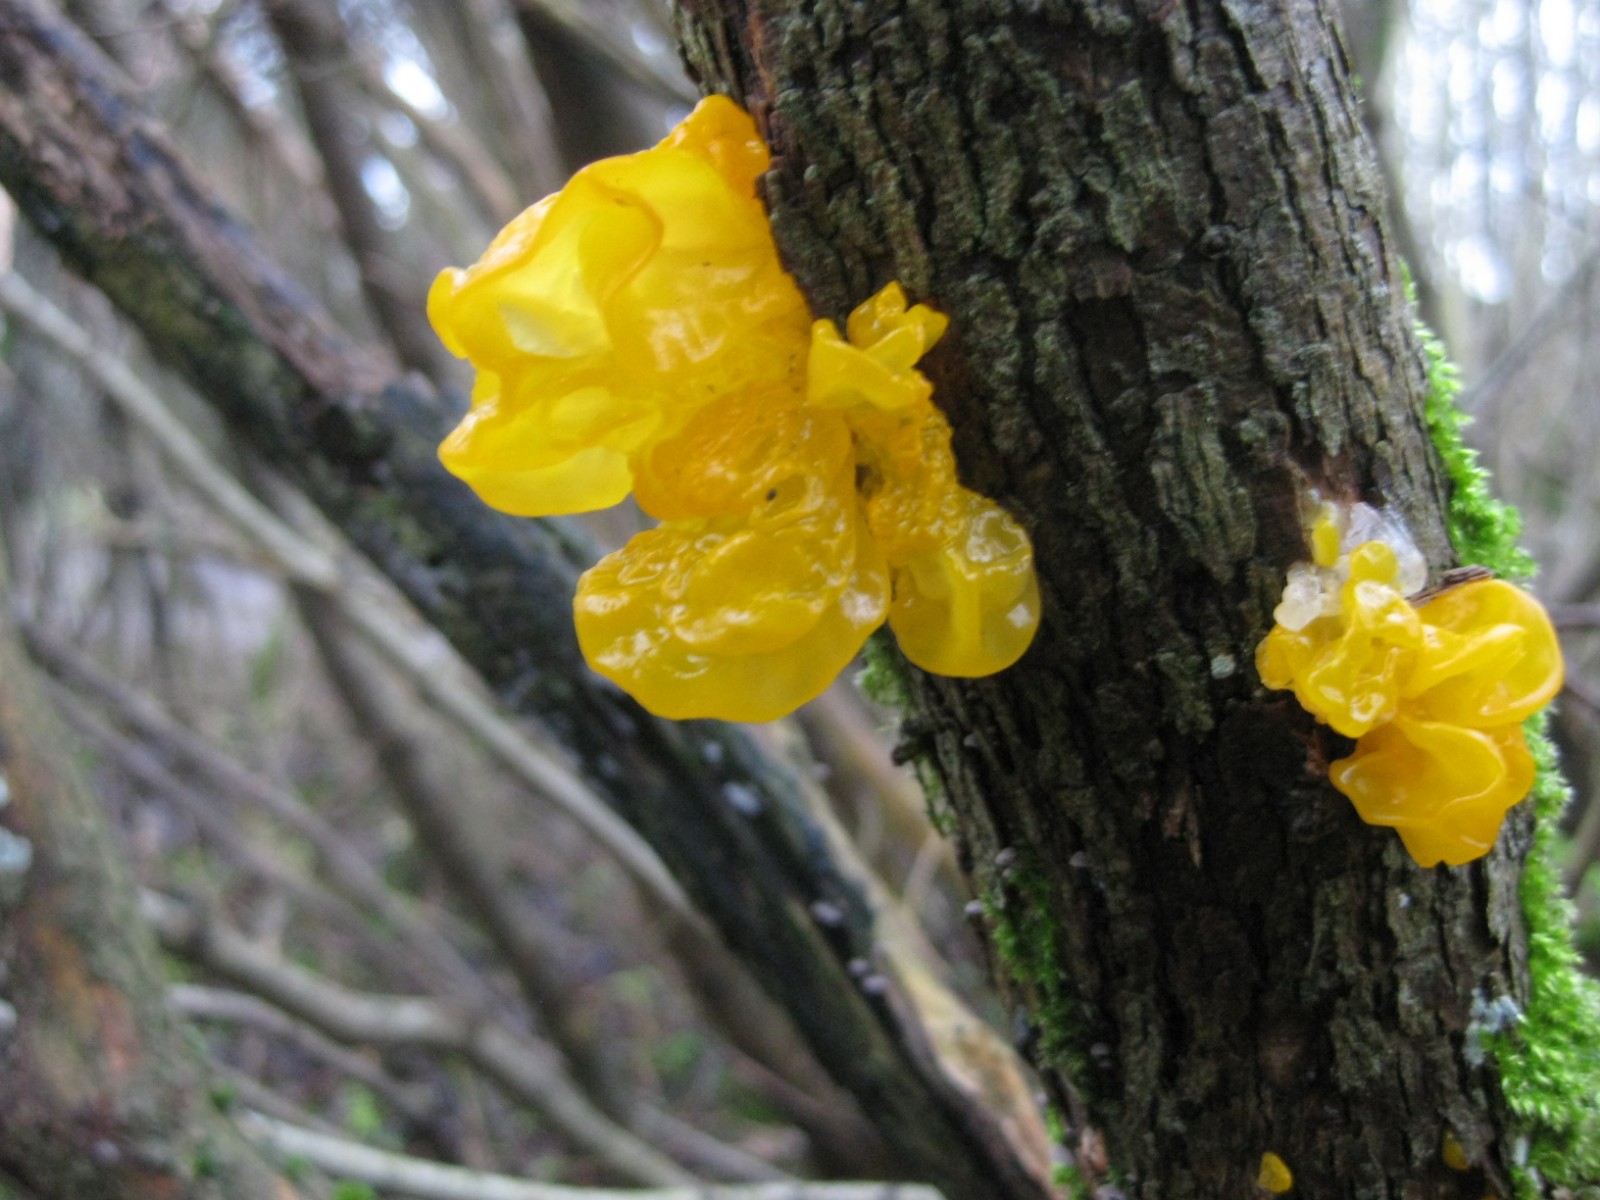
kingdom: Fungi
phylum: Basidiomycota
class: Tremellomycetes
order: Tremellales
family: Tremellaceae
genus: Tremella
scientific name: Tremella mesenterica
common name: gul bævresvamp
